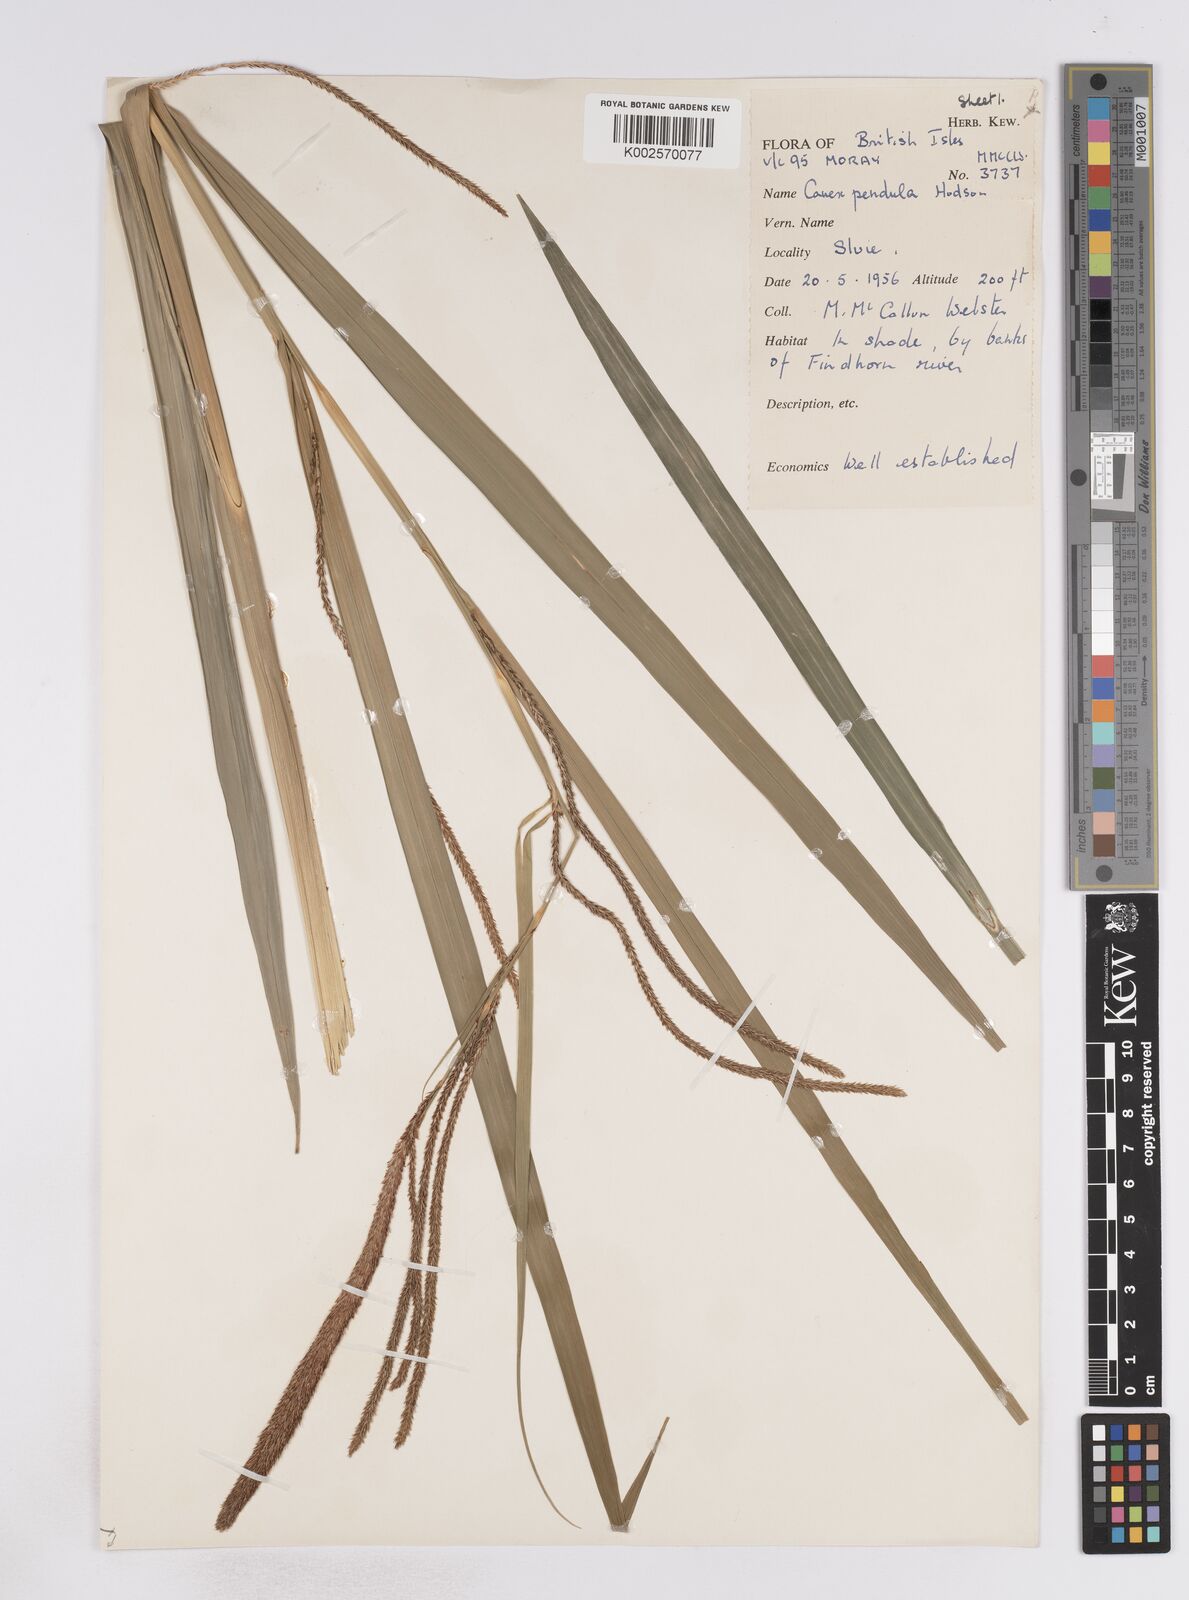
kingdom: Plantae
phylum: Tracheophyta
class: Liliopsida
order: Poales
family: Cyperaceae
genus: Carex
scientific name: Carex pendula
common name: Pendulous sedge
